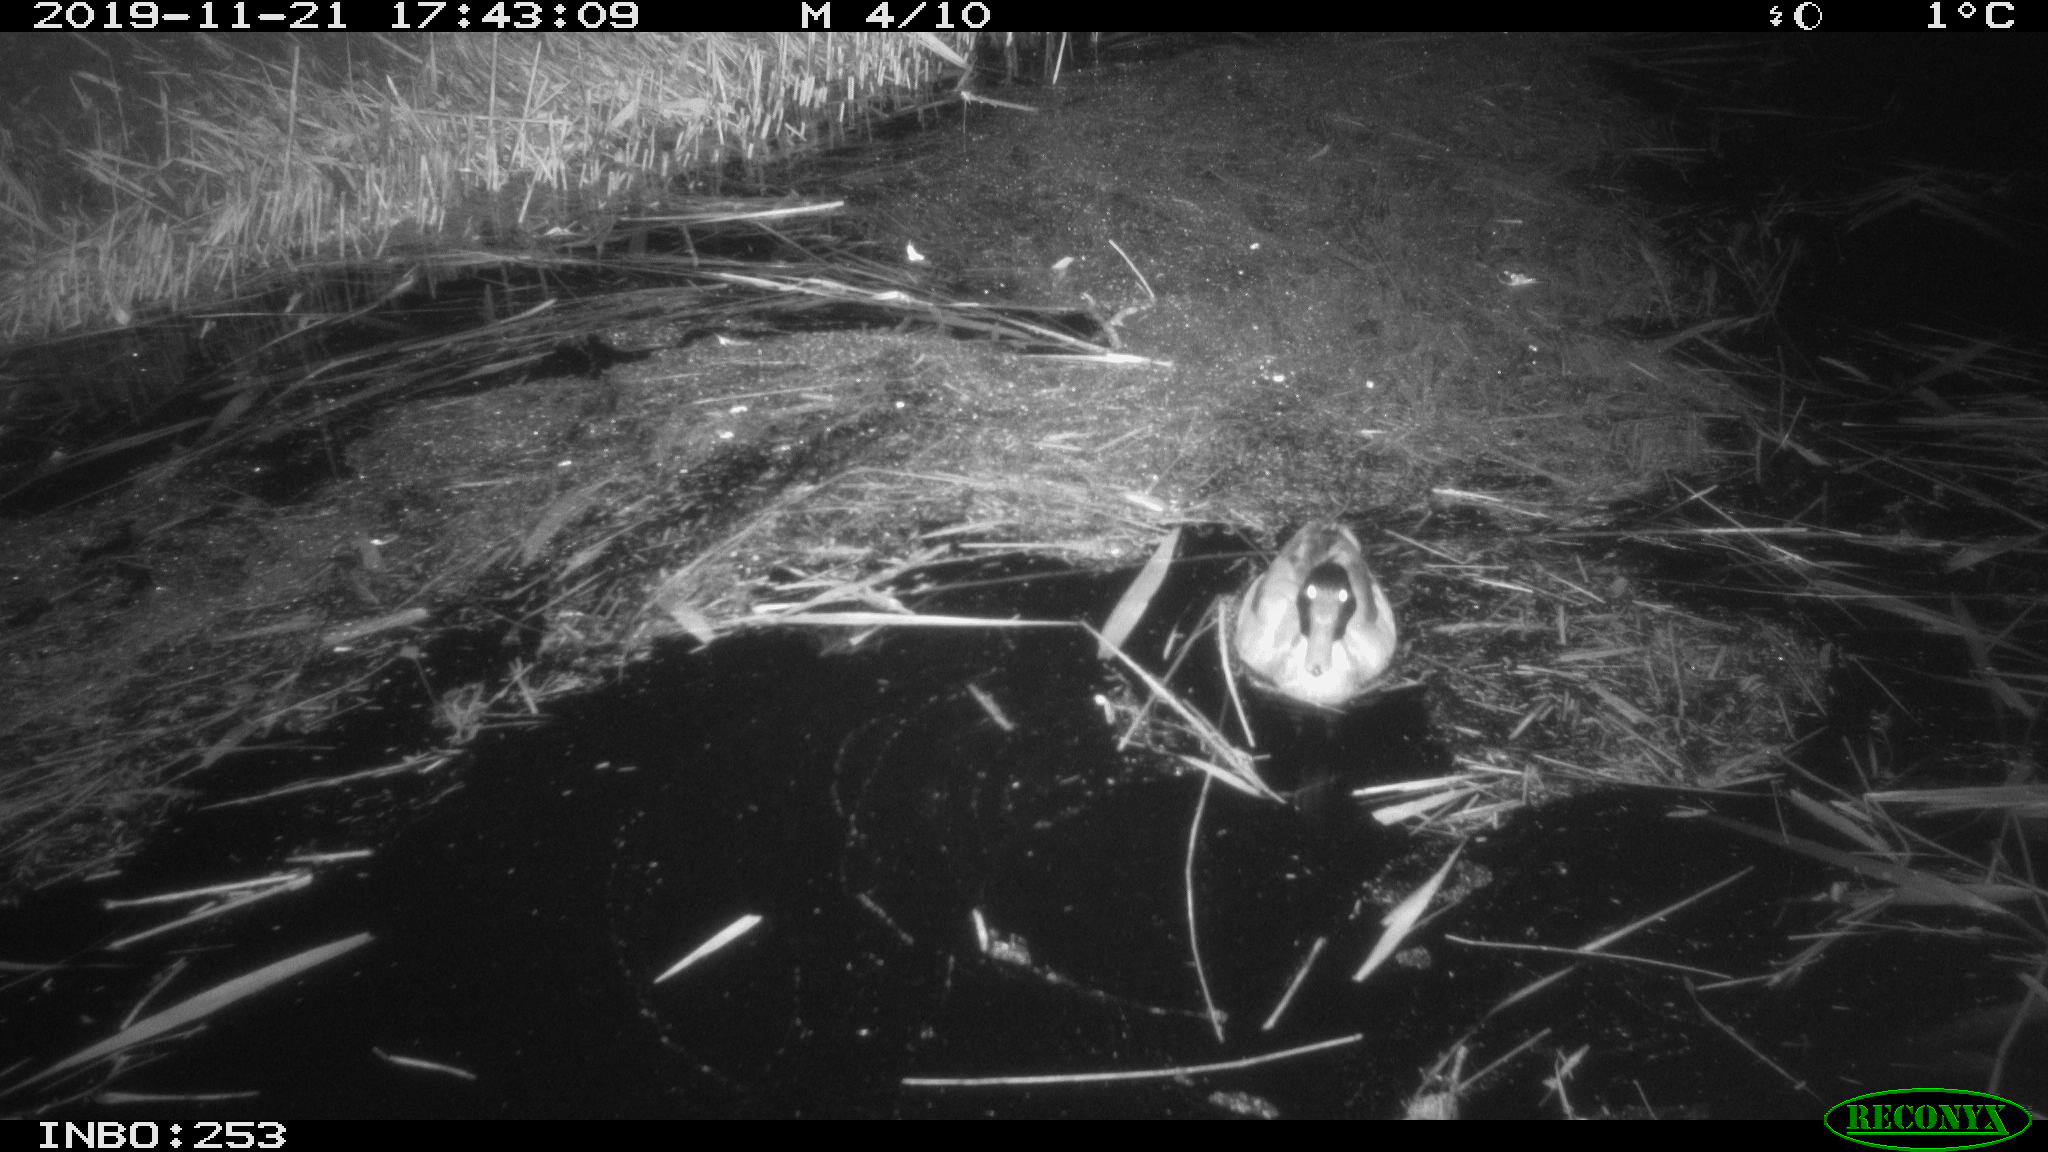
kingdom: Animalia
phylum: Chordata
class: Aves
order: Anseriformes
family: Anatidae
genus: Anas
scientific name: Anas platyrhynchos
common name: Mallard
